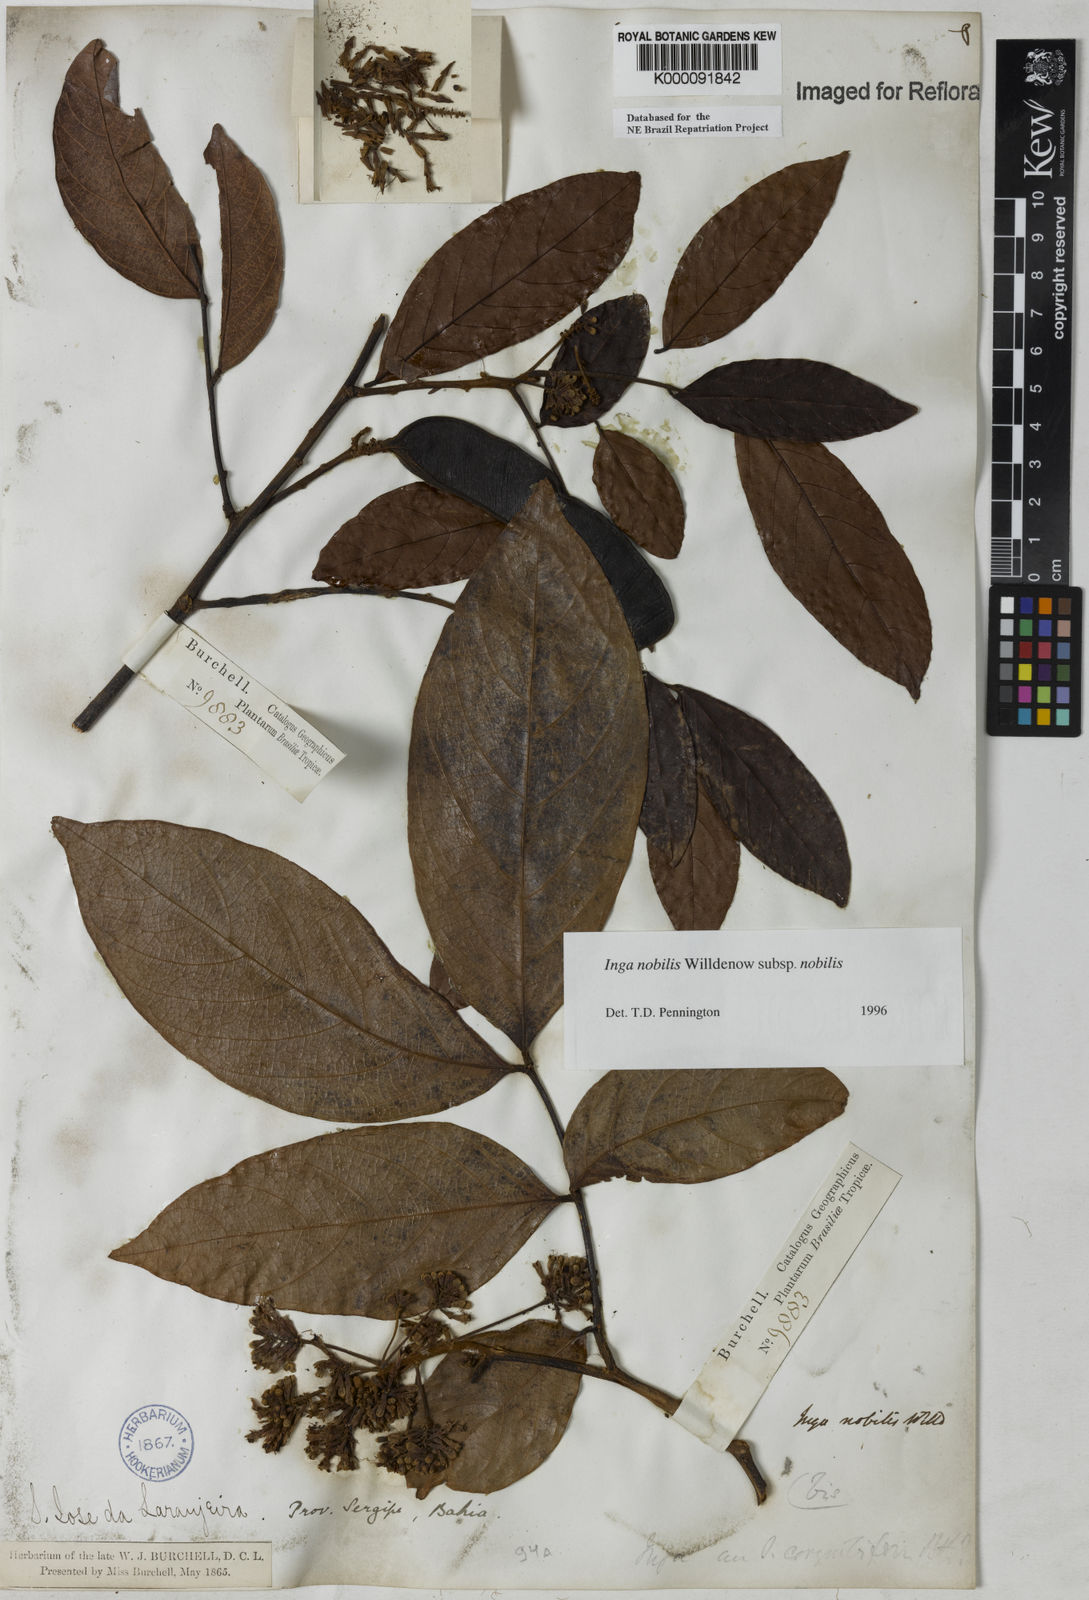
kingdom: Plantae
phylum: Tracheophyta
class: Magnoliopsida
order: Fabales
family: Fabaceae
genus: Inga
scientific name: Inga nobilis
